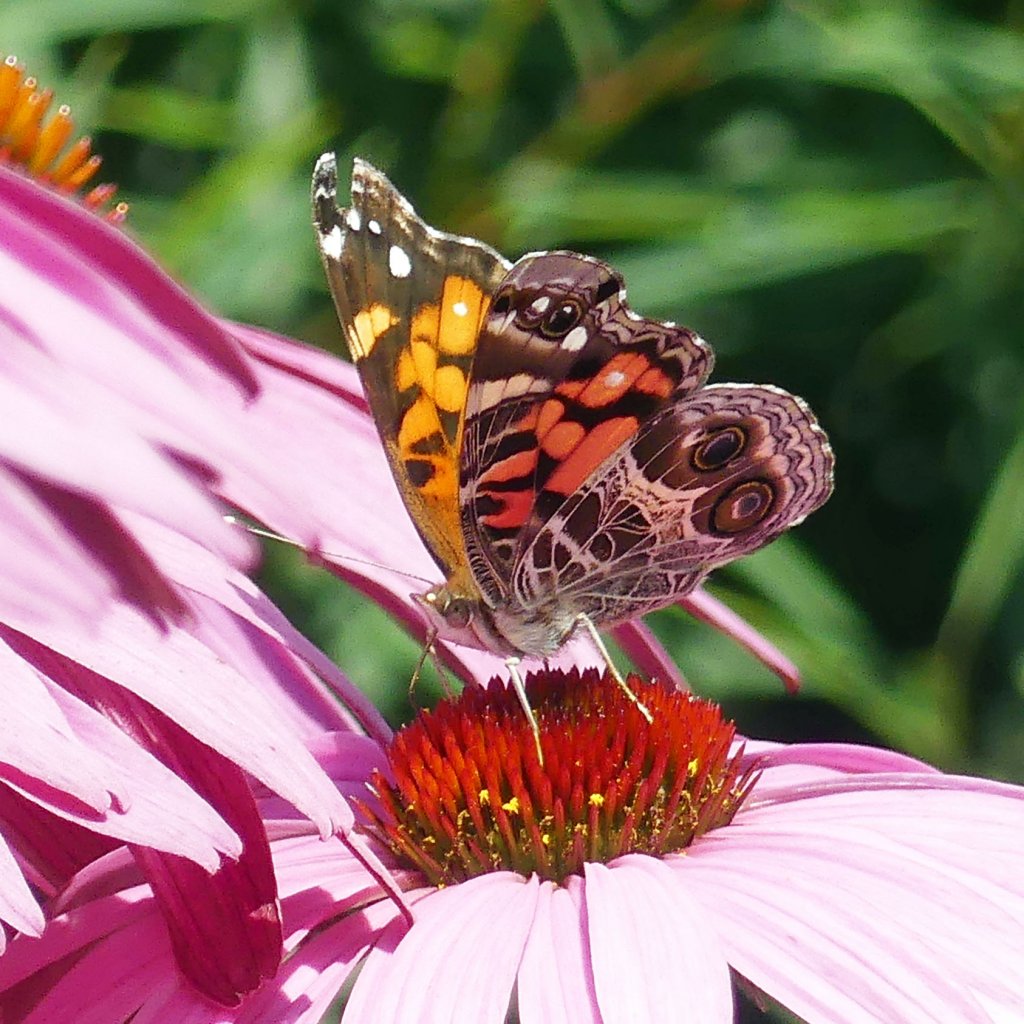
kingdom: Animalia
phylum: Arthropoda
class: Insecta
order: Lepidoptera
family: Nymphalidae
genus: Vanessa
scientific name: Vanessa virginiensis
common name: American Lady
